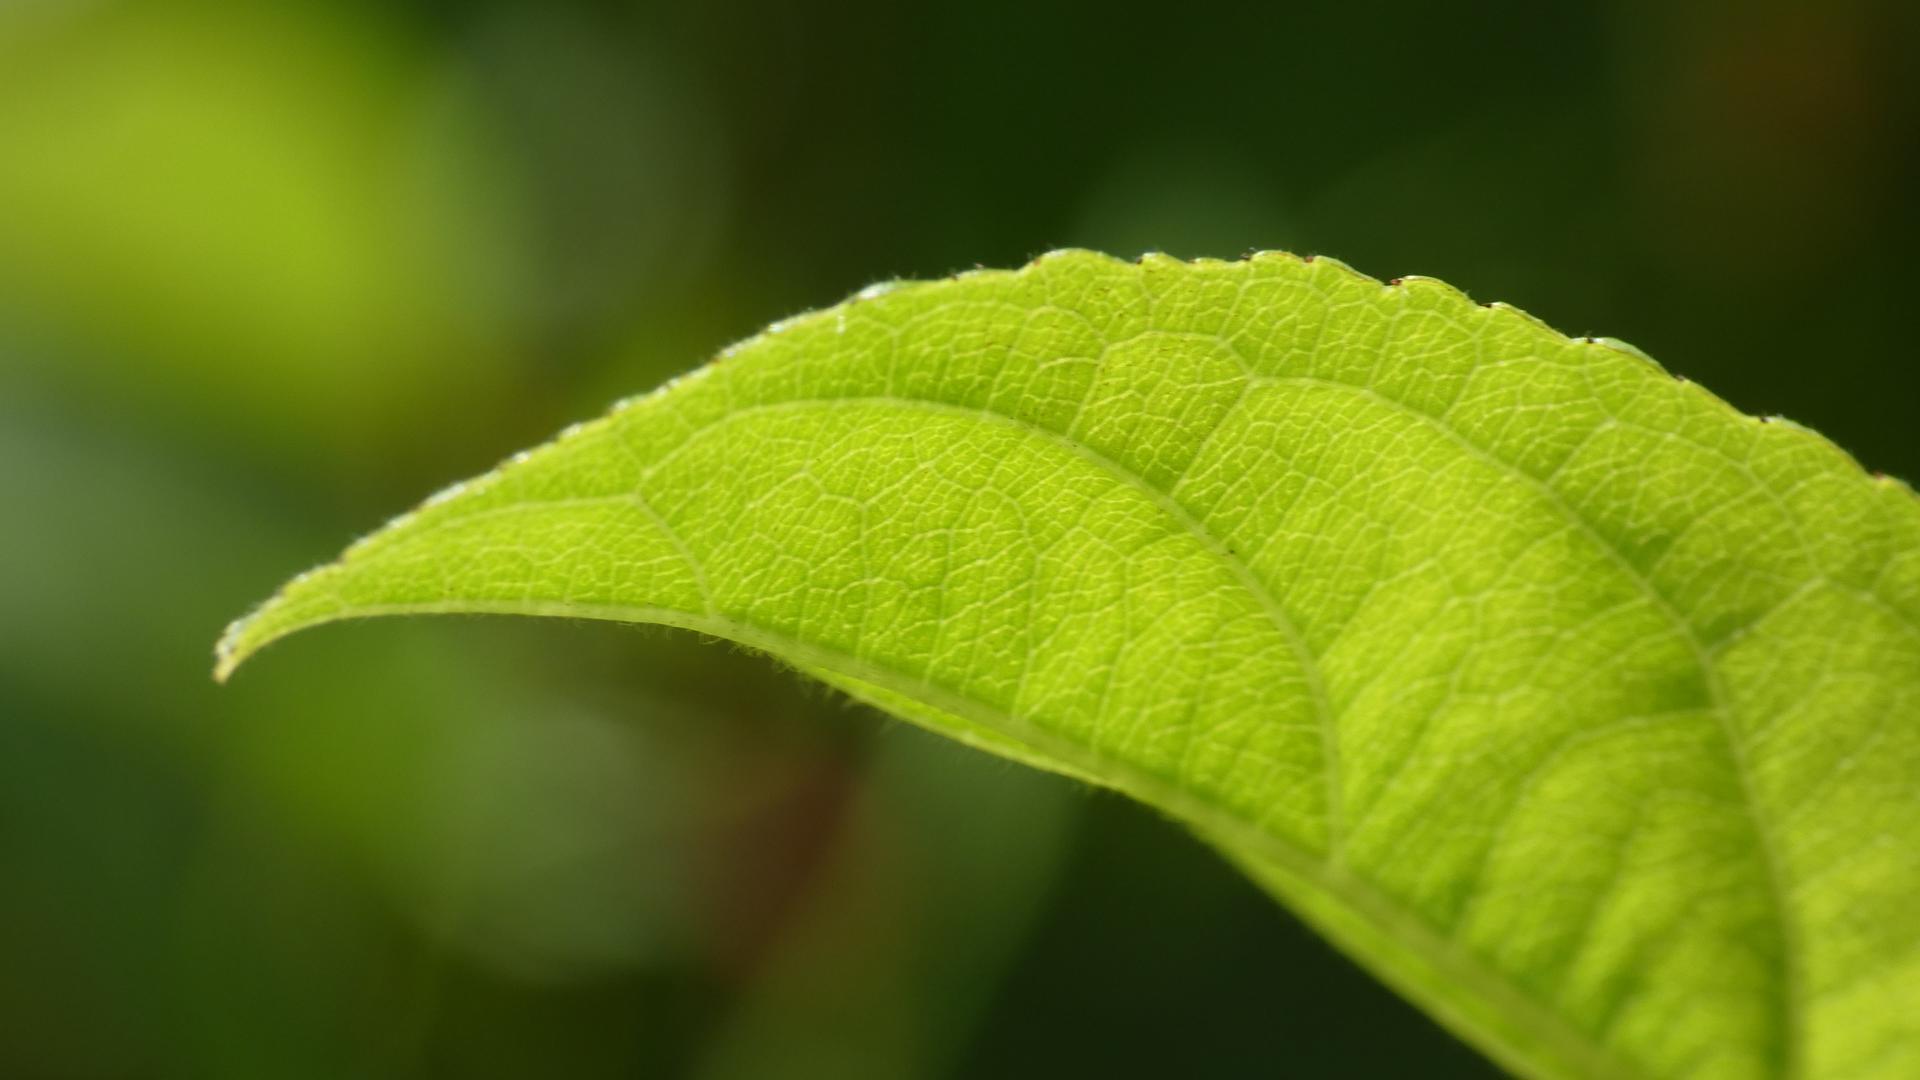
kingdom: Plantae
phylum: Tracheophyta
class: Magnoliopsida
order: Rosales
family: Rhamnaceae
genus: Rhamnus
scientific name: Rhamnus cathartica
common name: Vrietorn
